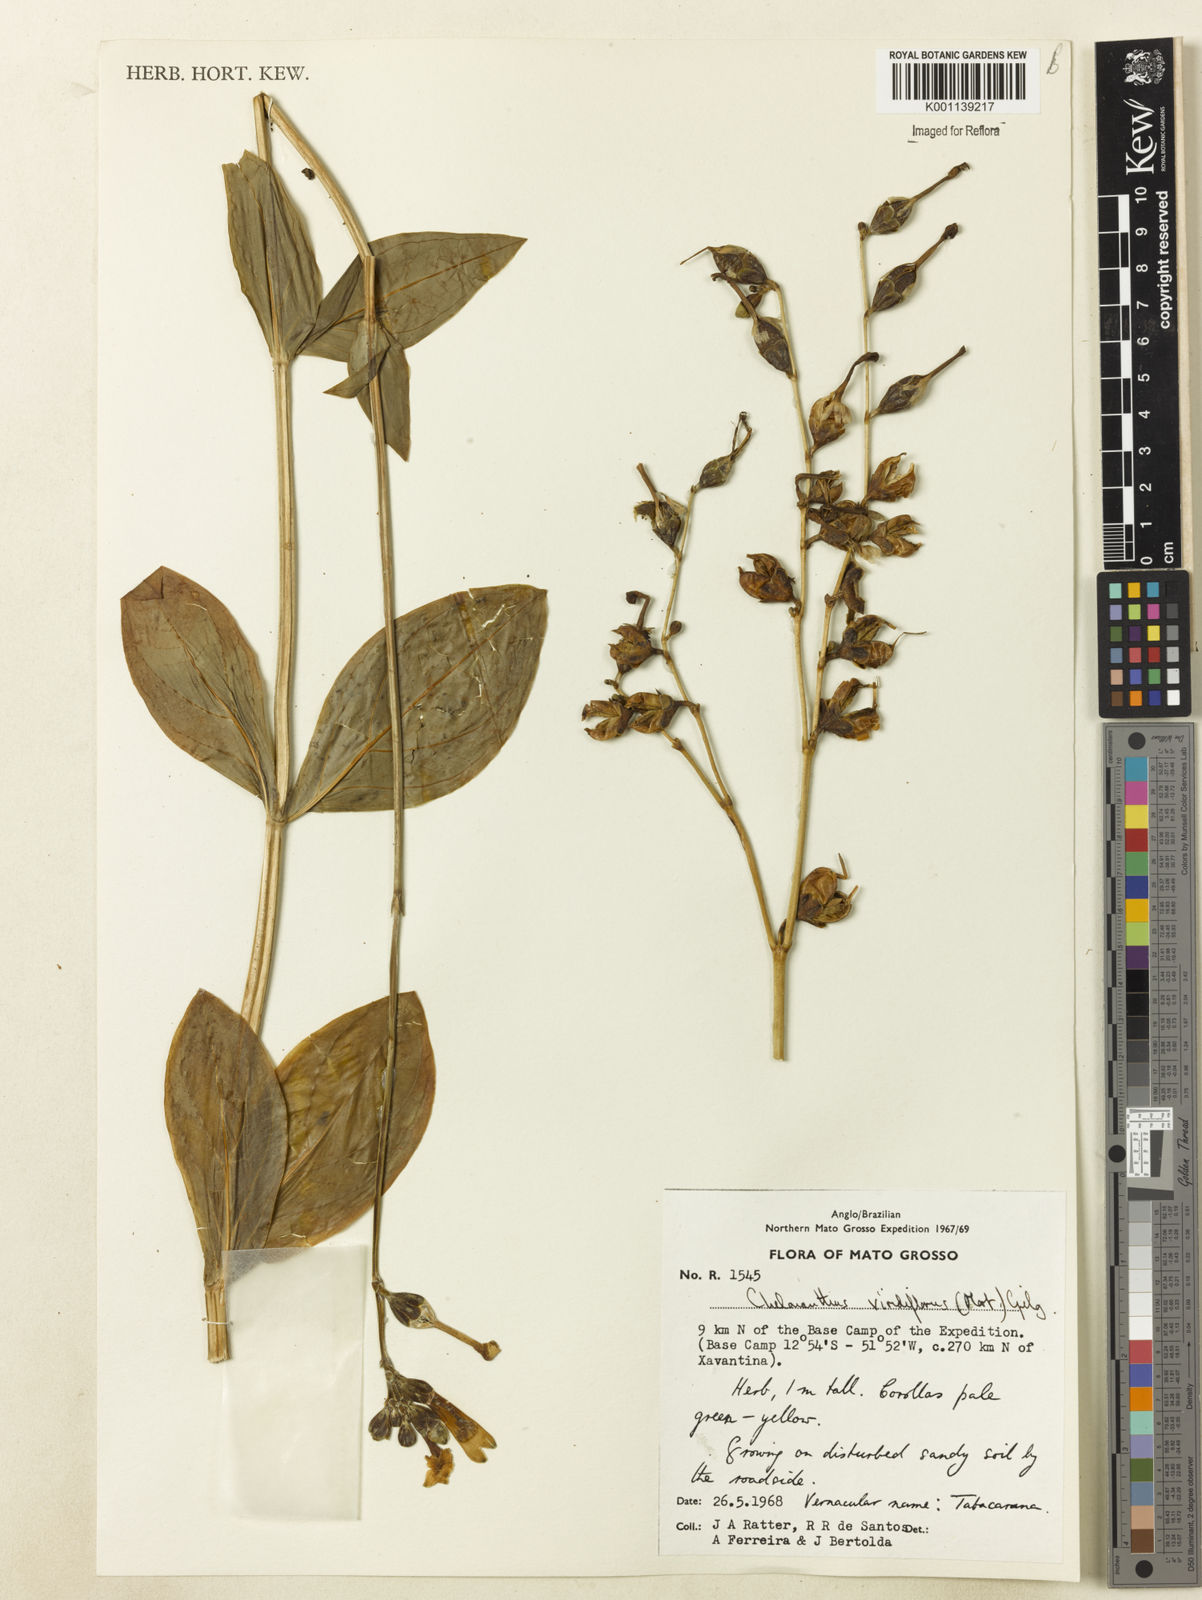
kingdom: Plantae
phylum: Tracheophyta
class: Magnoliopsida
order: Gentianales
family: Gentianaceae
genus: Chelonanthus
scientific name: Chelonanthus viridiflorus
